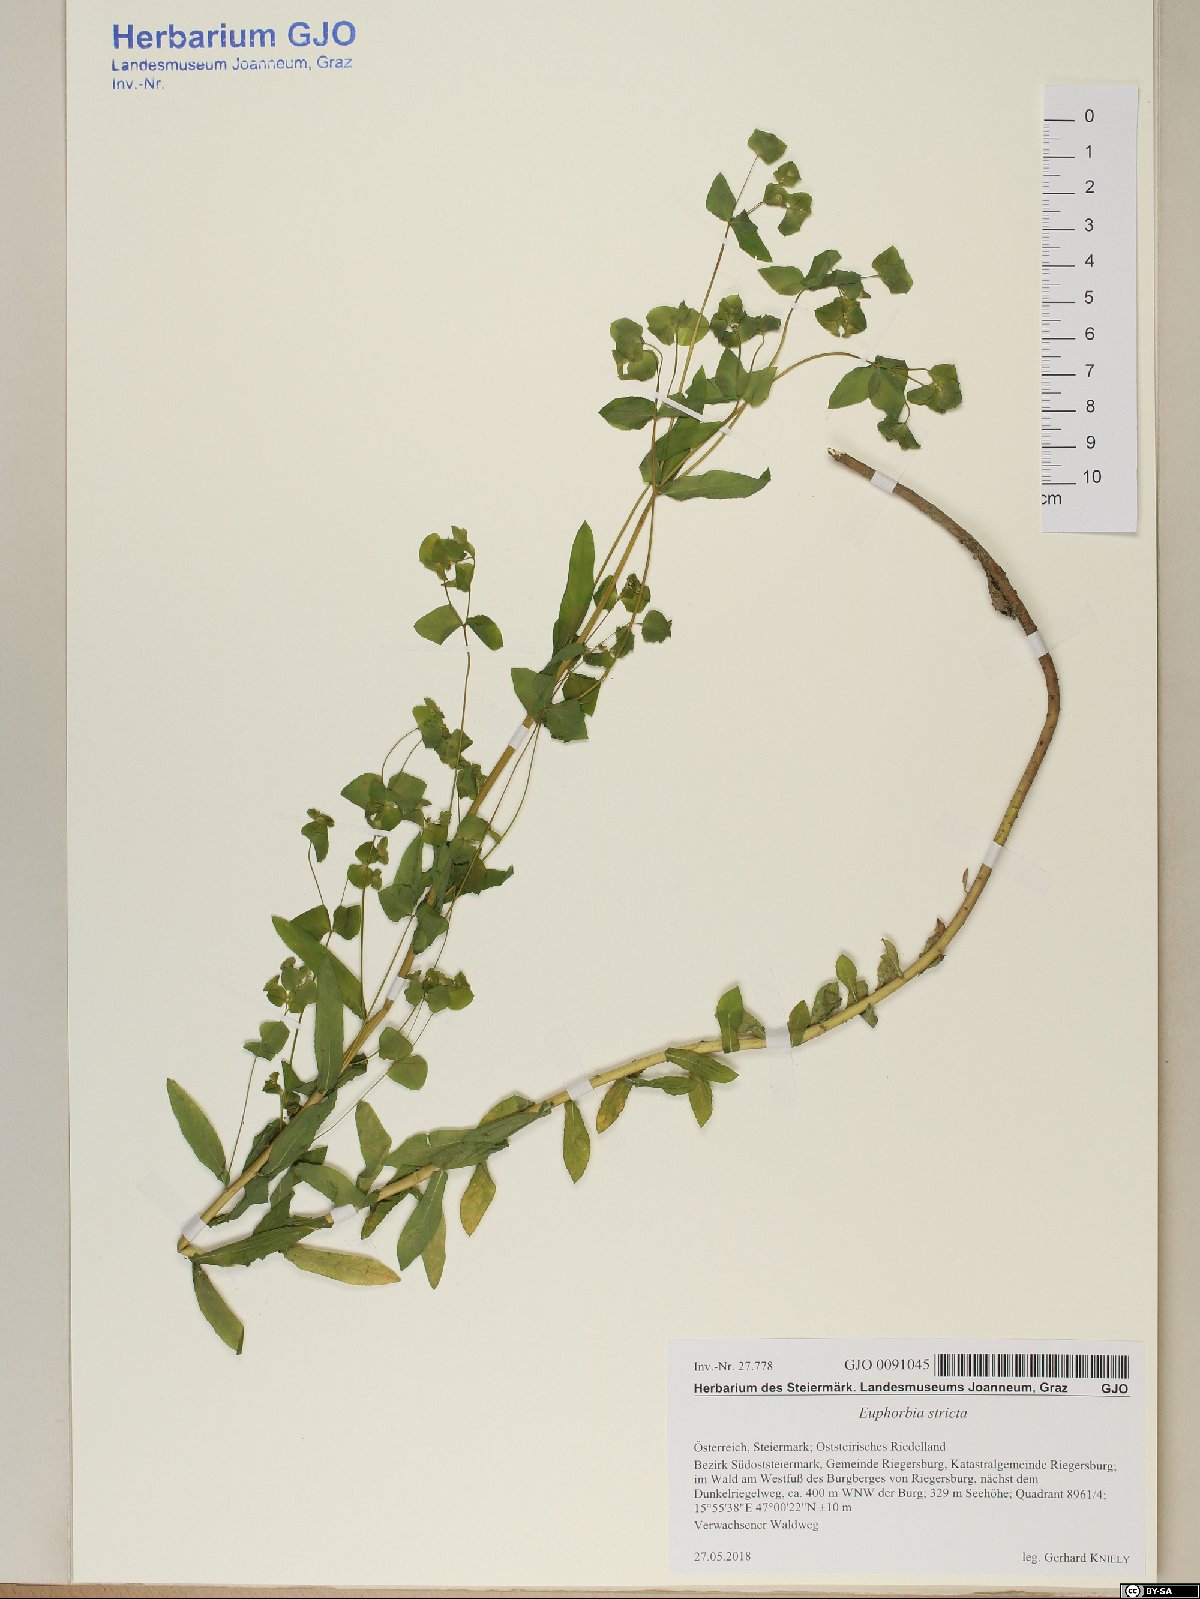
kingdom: Plantae
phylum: Tracheophyta
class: Magnoliopsida
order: Malpighiales
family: Euphorbiaceae
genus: Euphorbia
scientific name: Euphorbia stricta
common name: Upright spurge
